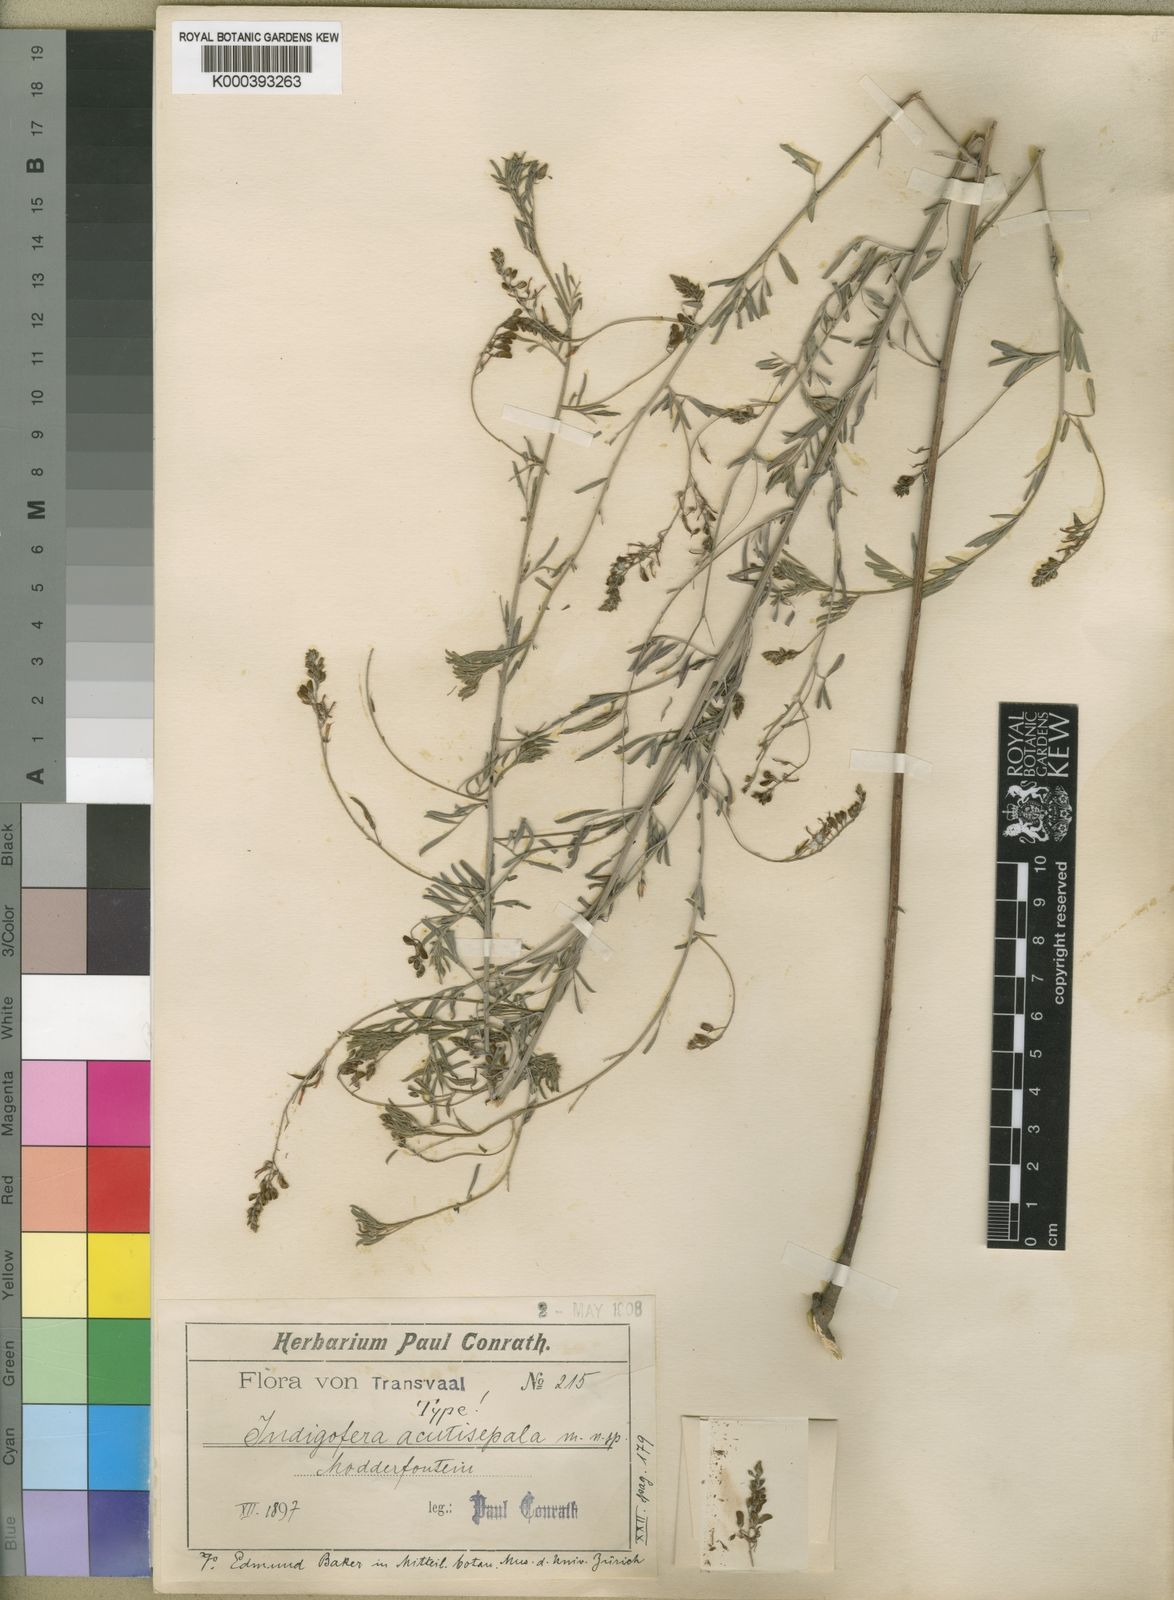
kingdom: Plantae
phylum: Tracheophyta
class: Magnoliopsida
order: Fabales
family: Fabaceae
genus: Indigofera
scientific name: Indigofera punctata
